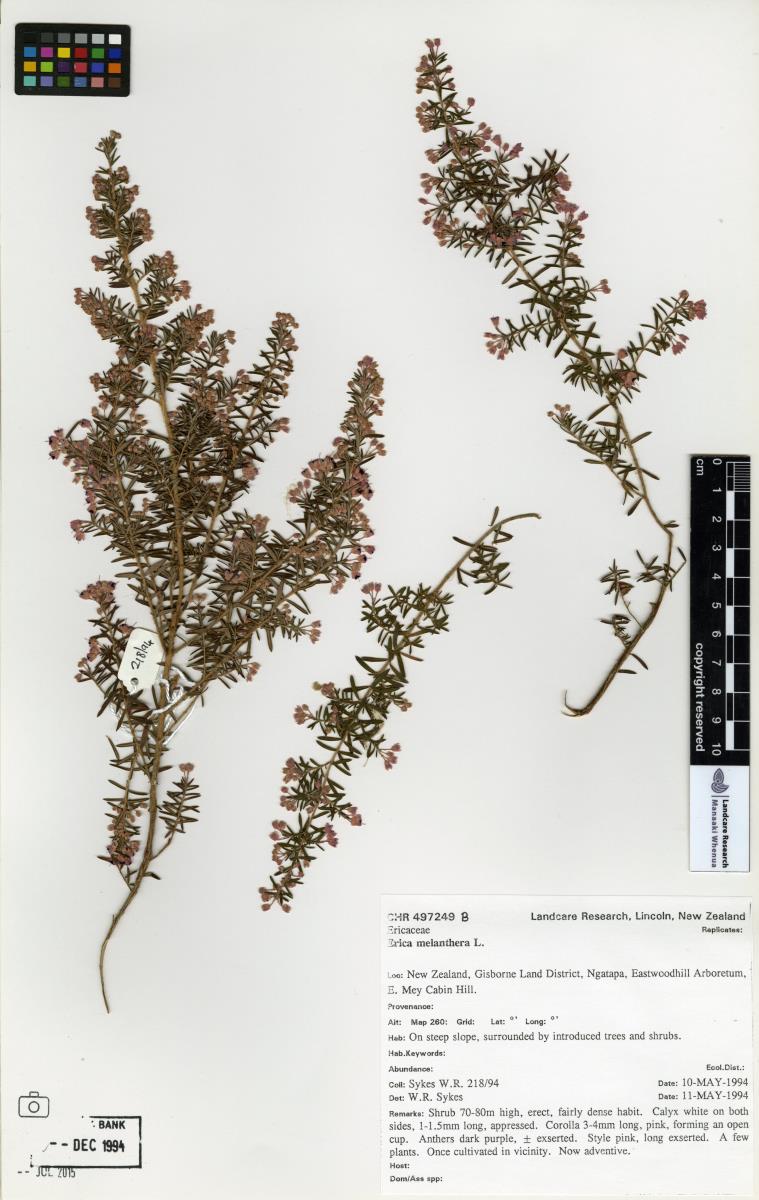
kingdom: Plantae
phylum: Tracheophyta
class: Magnoliopsida
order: Ericales
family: Ericaceae
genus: Erica
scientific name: Erica melanthera
